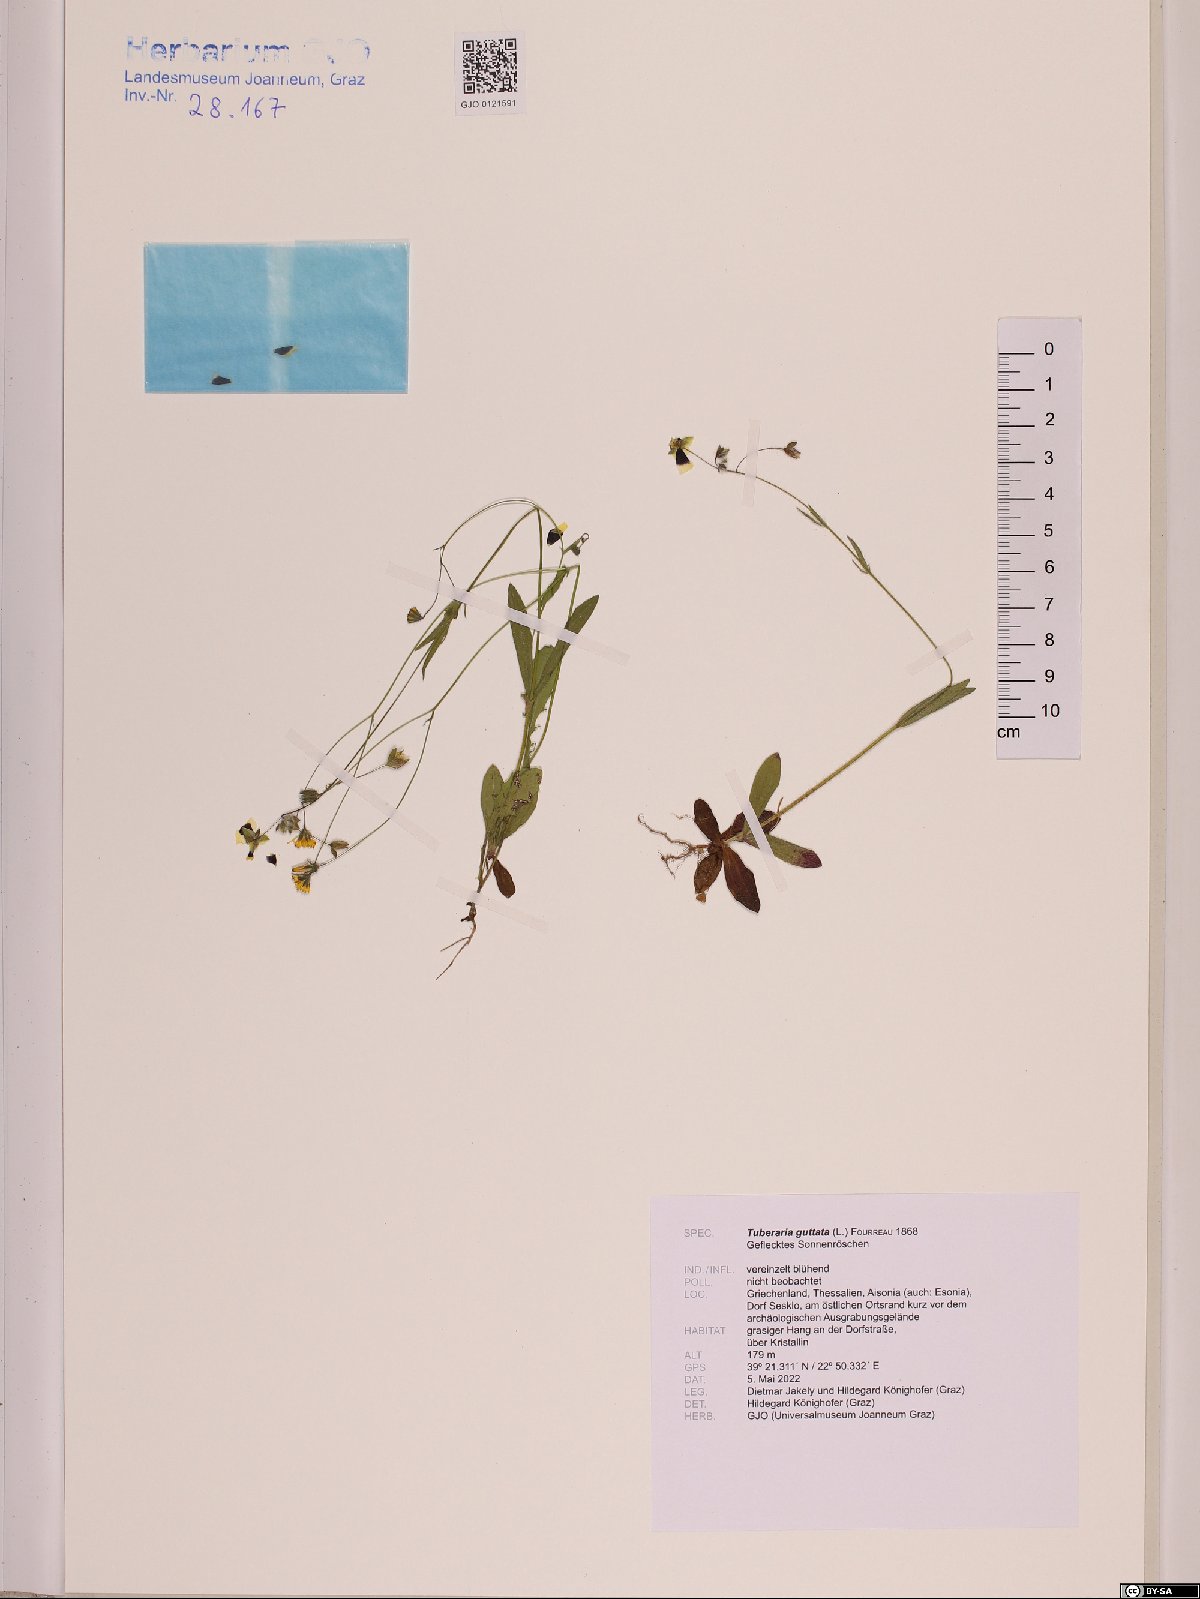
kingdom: Plantae
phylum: Tracheophyta
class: Magnoliopsida
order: Malvales
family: Cistaceae
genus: Tuberaria
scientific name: Tuberaria guttata
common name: Spotted rock-rose
